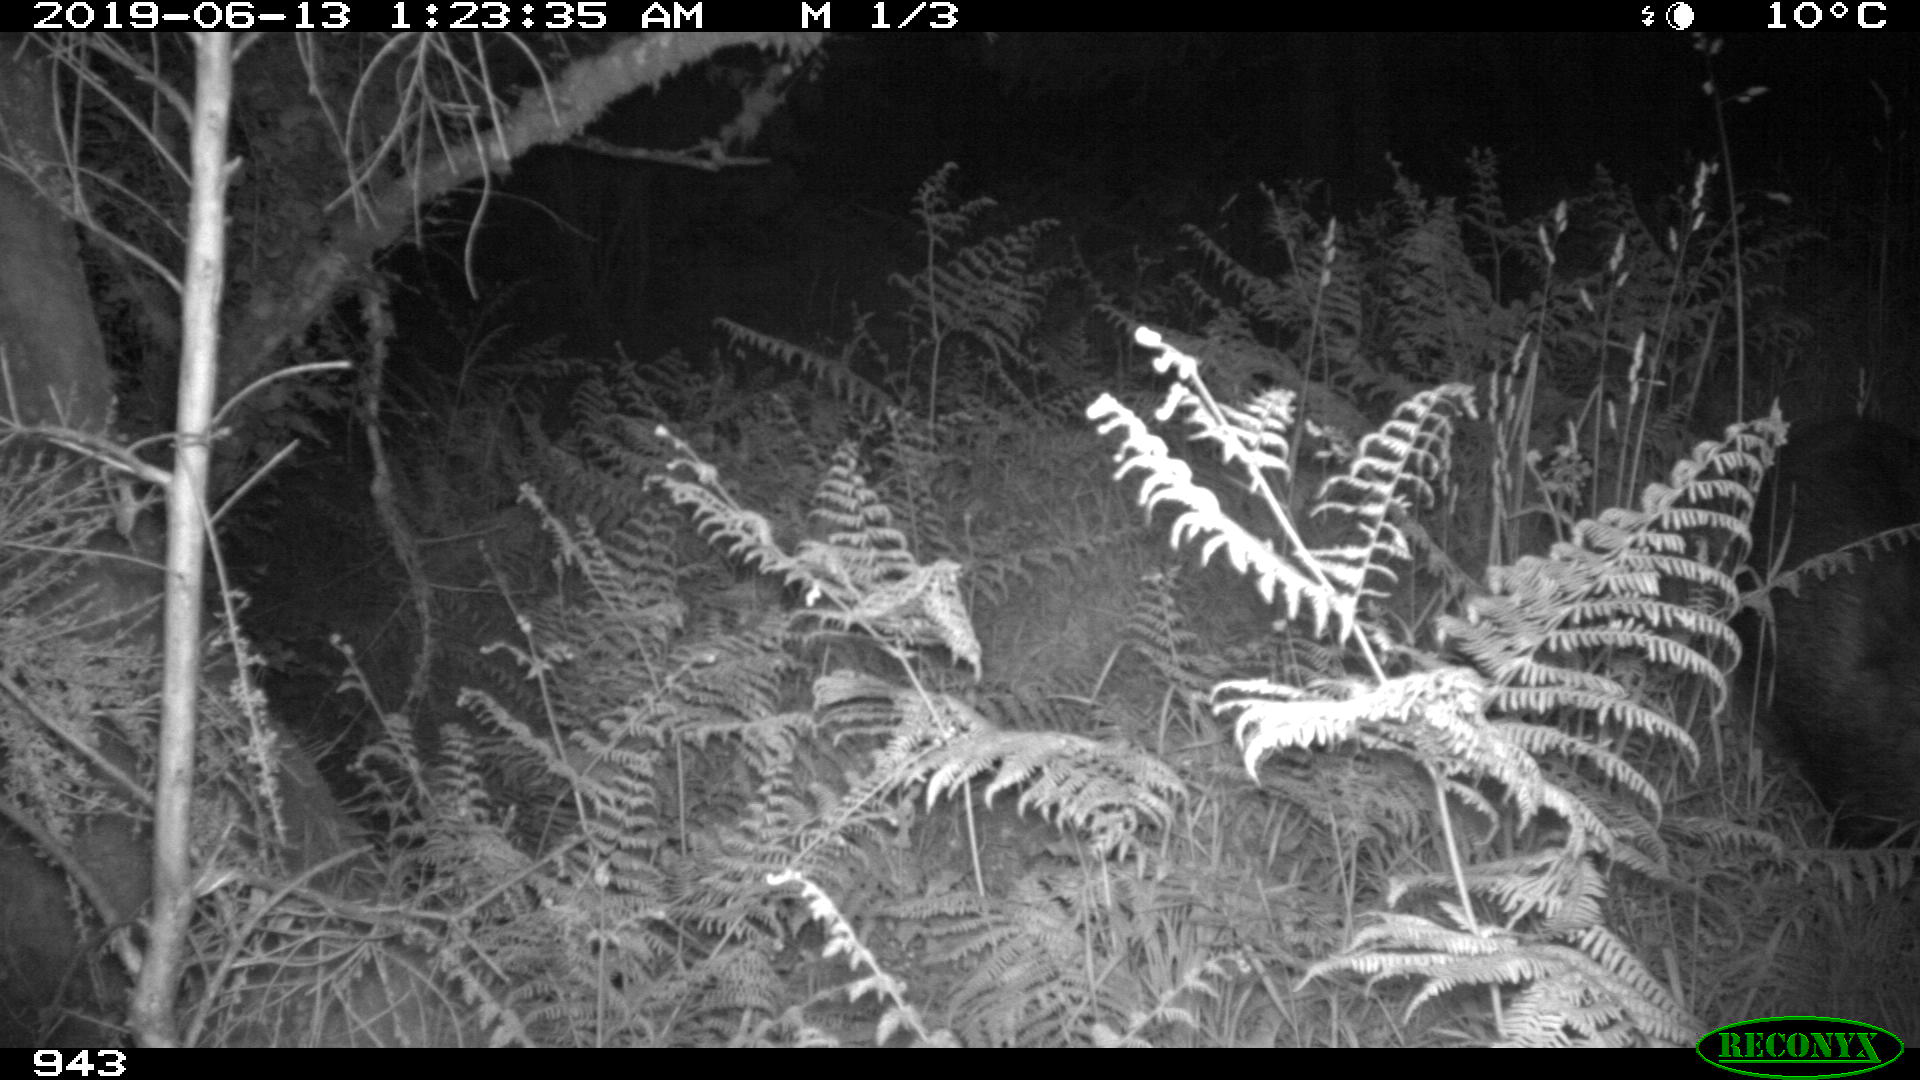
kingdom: Animalia
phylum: Chordata
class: Mammalia
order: Artiodactyla
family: Suidae
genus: Sus
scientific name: Sus scrofa
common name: Wild boar
